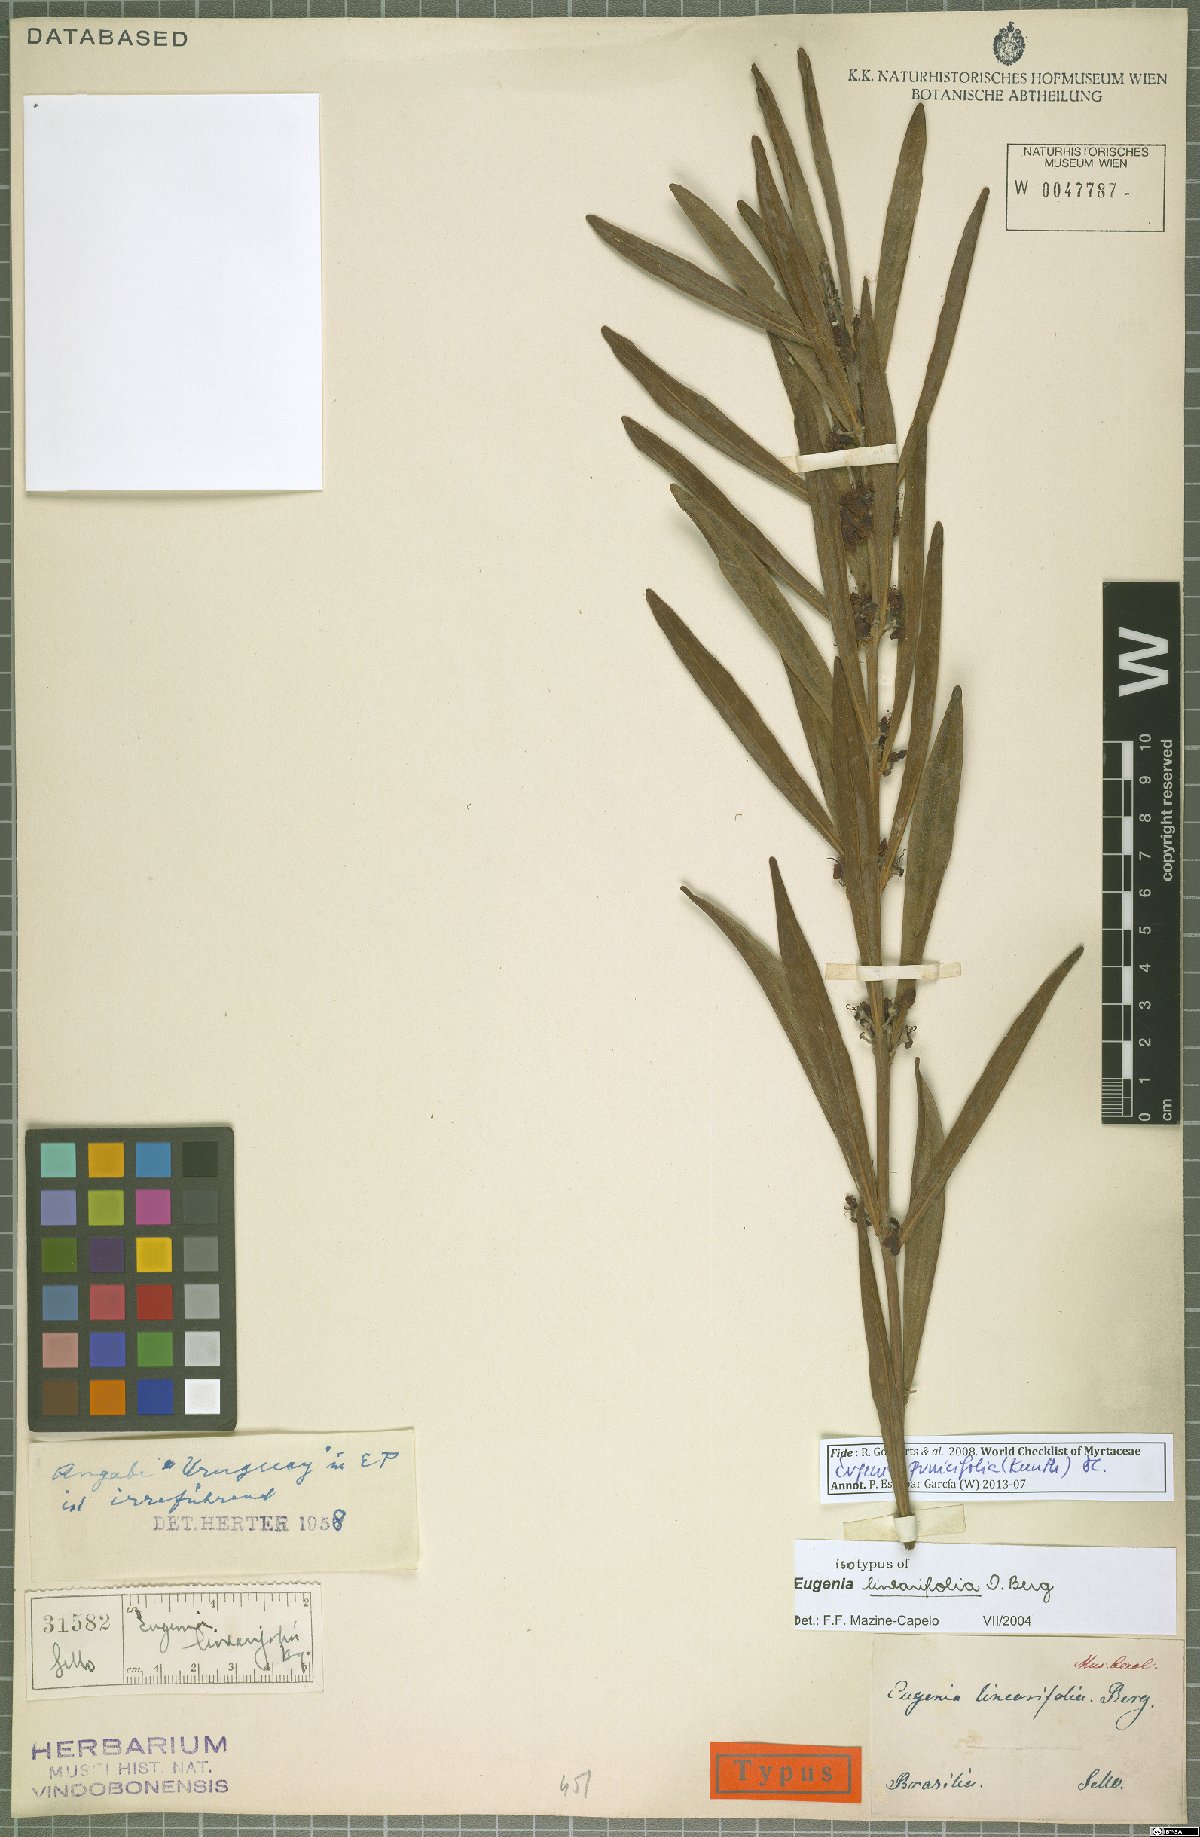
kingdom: Plantae
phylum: Tracheophyta
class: Magnoliopsida
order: Myrtales
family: Myrtaceae
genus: Eugenia
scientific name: Eugenia punicifolia
